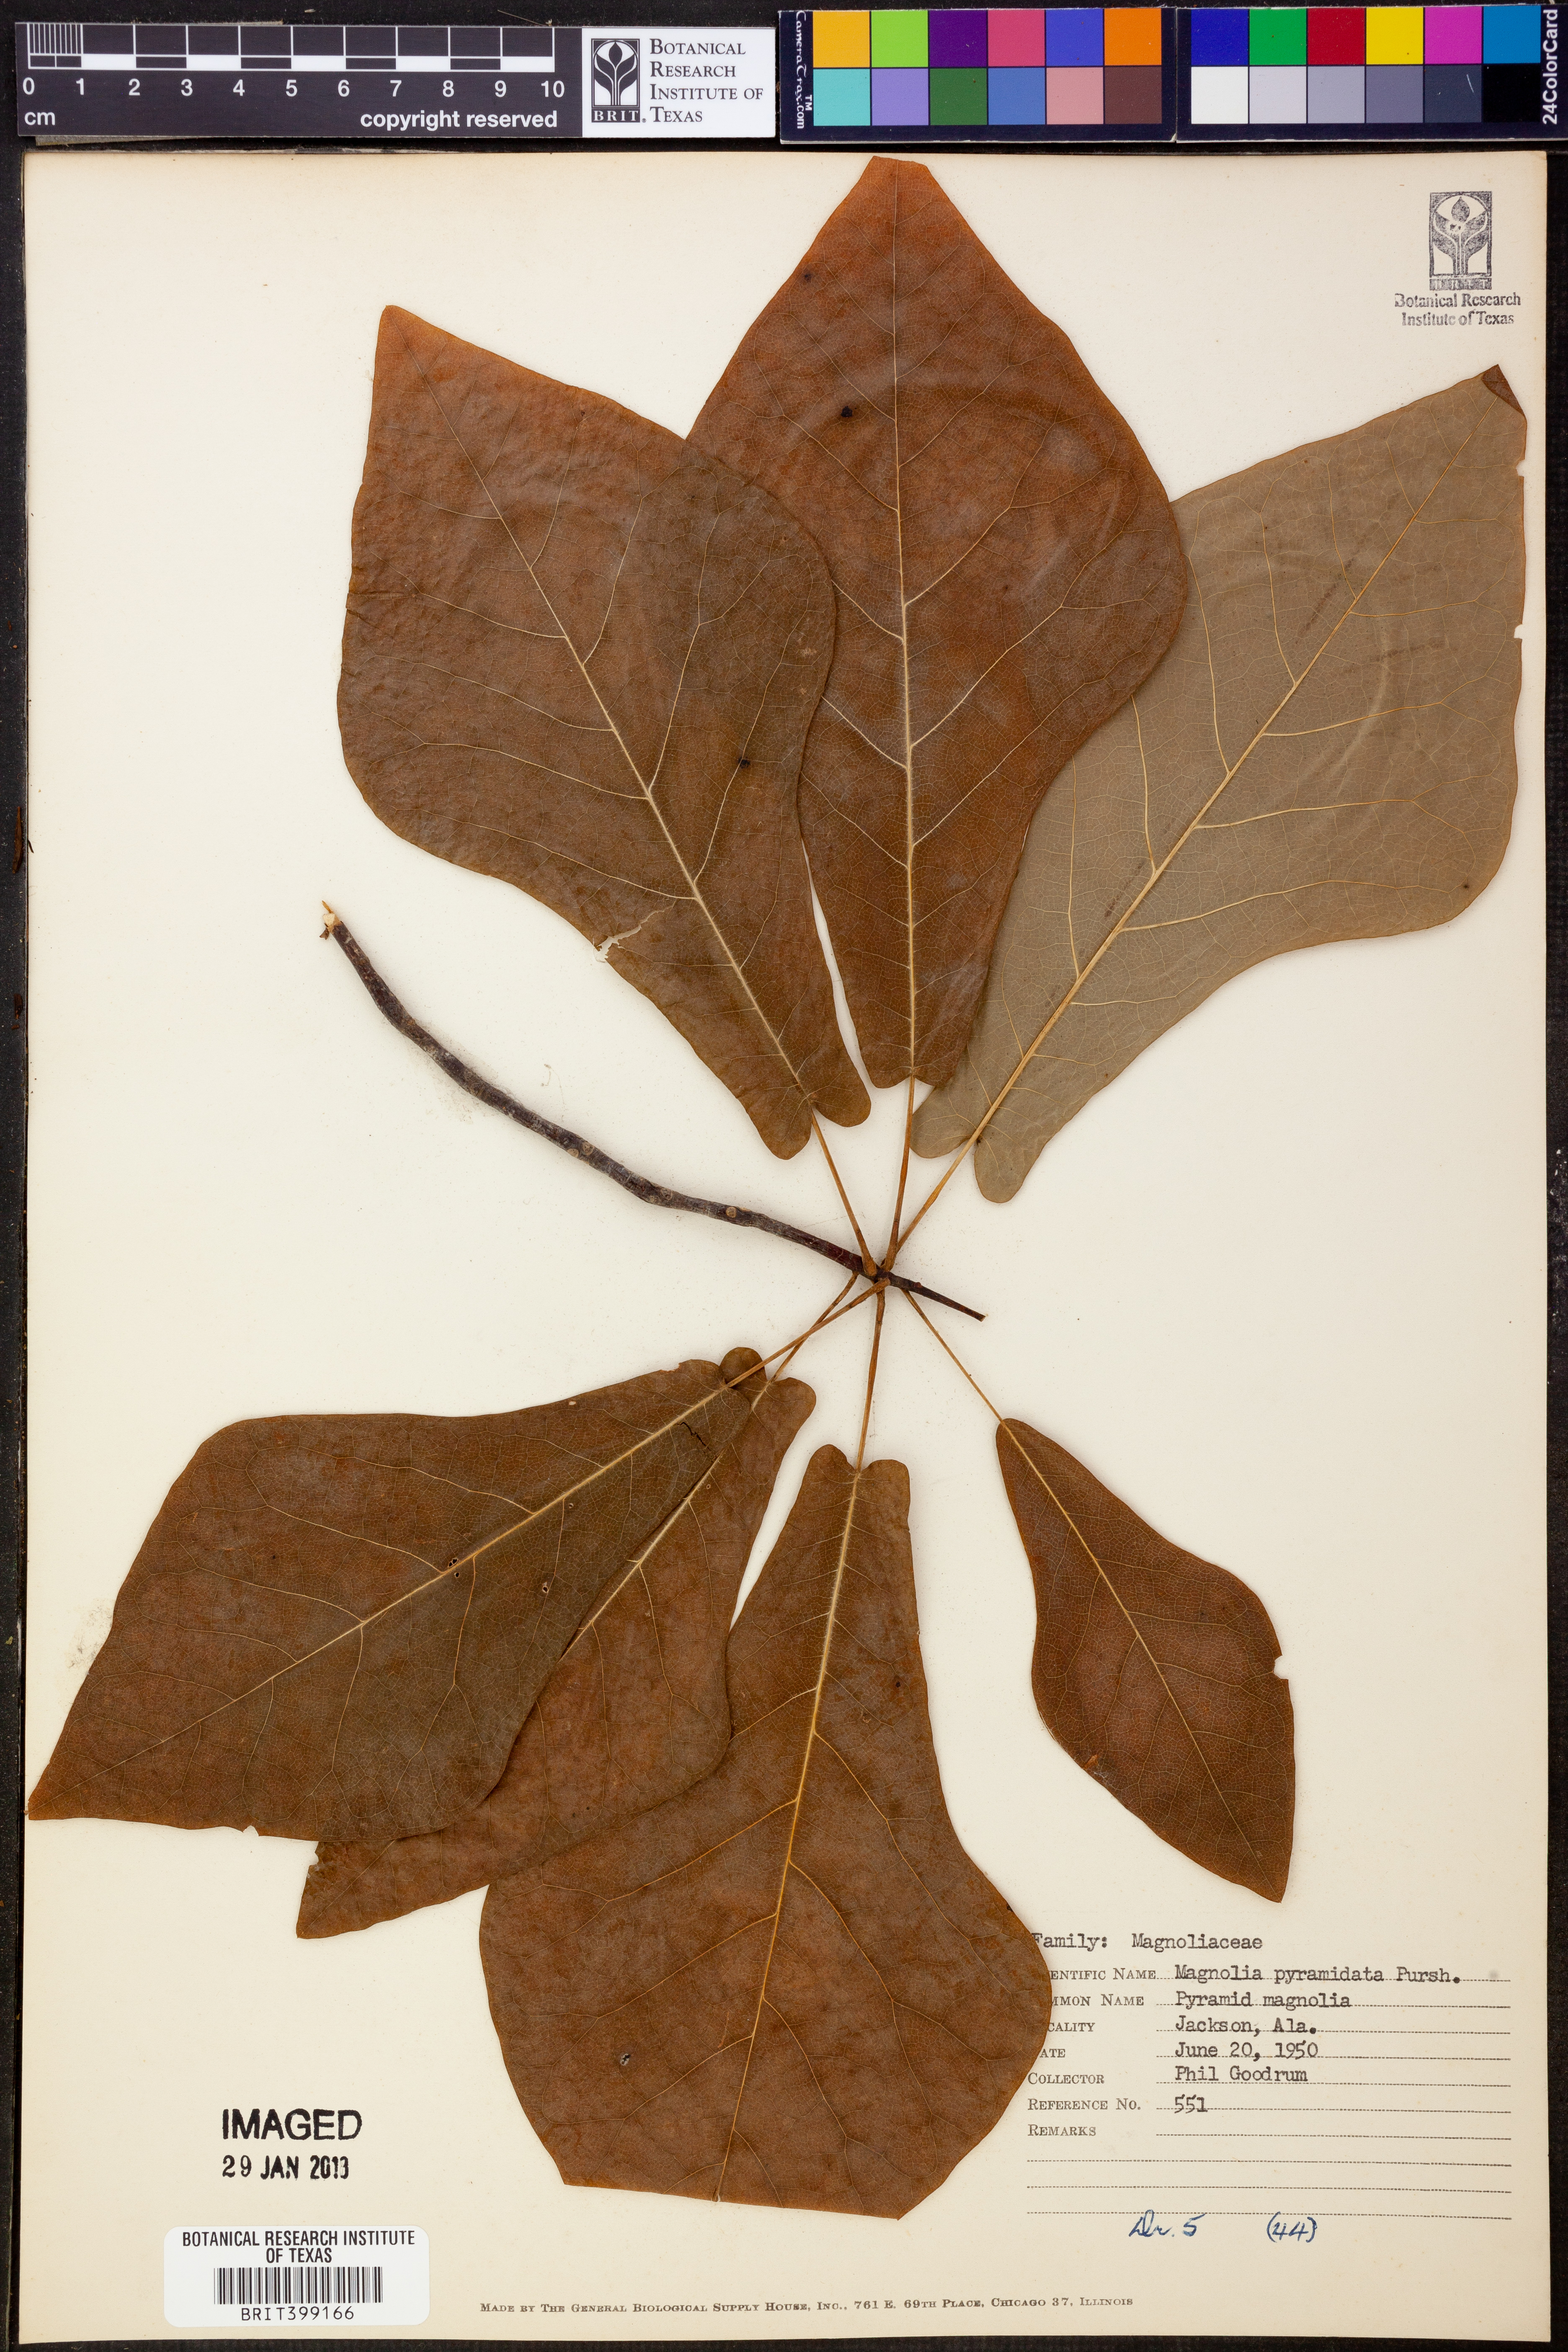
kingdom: Plantae
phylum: Tracheophyta
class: Magnoliopsida
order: Magnoliales
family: Magnoliaceae
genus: Magnolia
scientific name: Magnolia fraseri
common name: Fraser's magnolia
